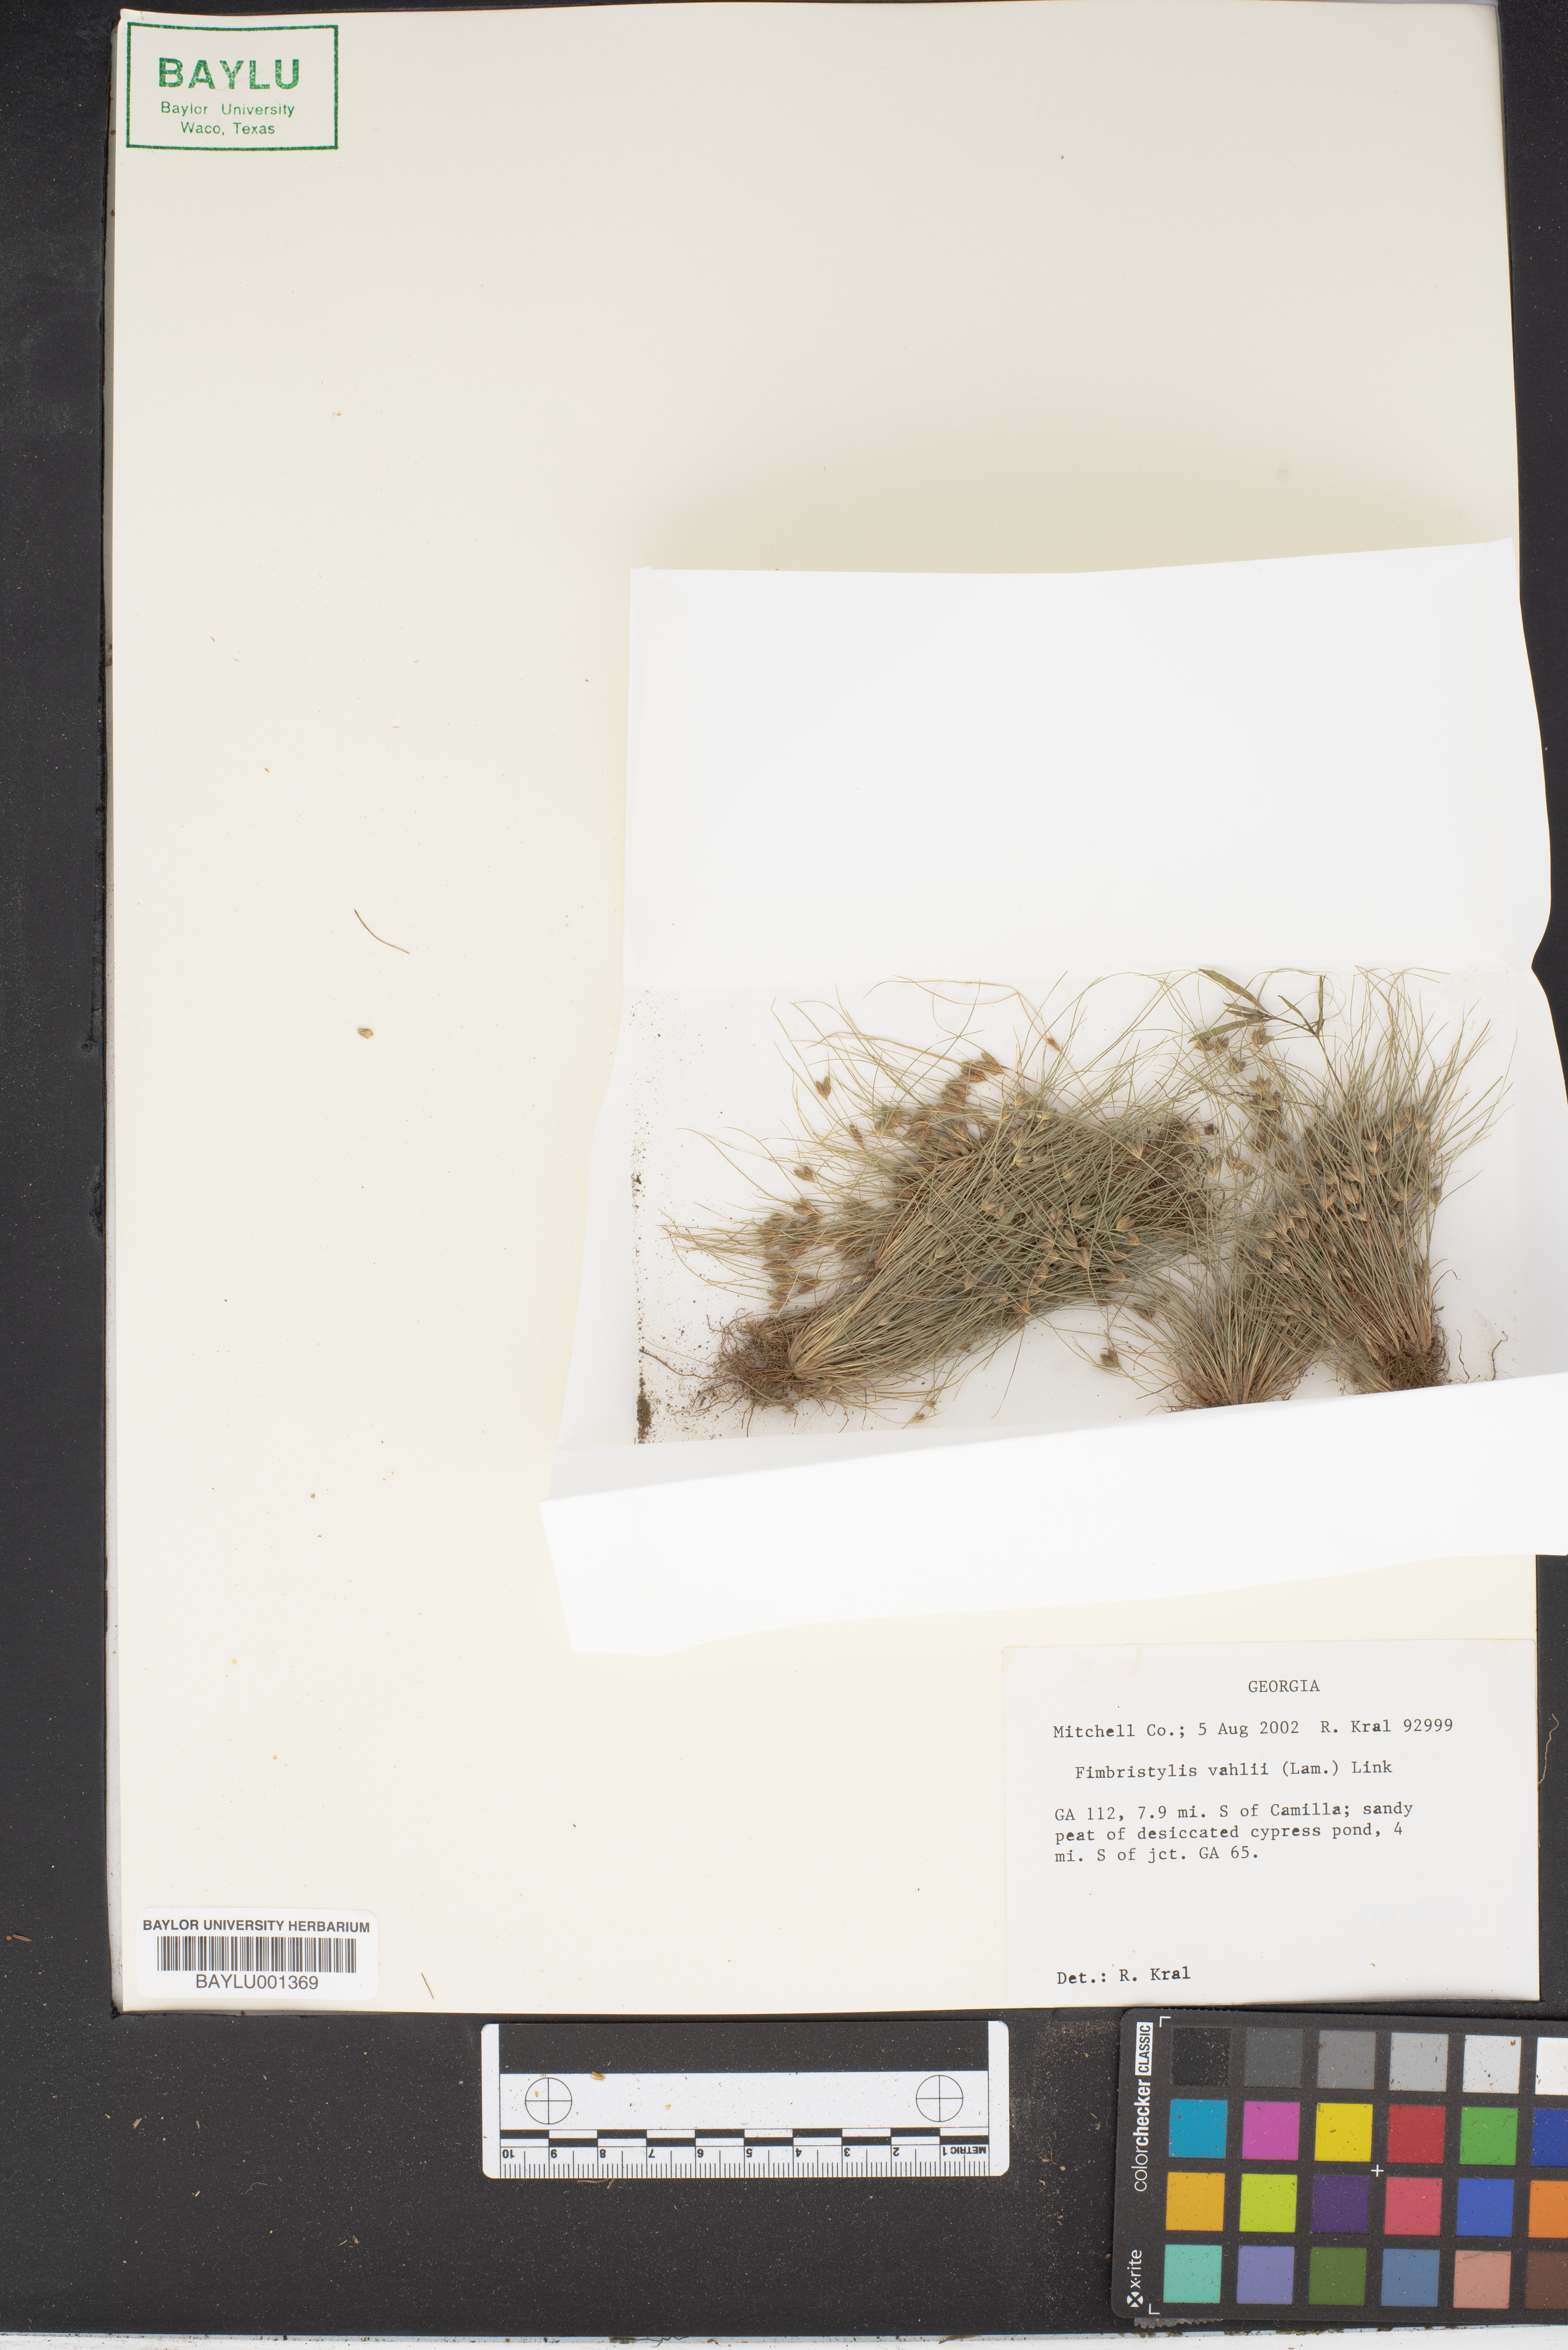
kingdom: Plantae
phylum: Tracheophyta
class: Liliopsida
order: Poales
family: Cyperaceae
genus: Fimbristylis
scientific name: Fimbristylis vahlii
